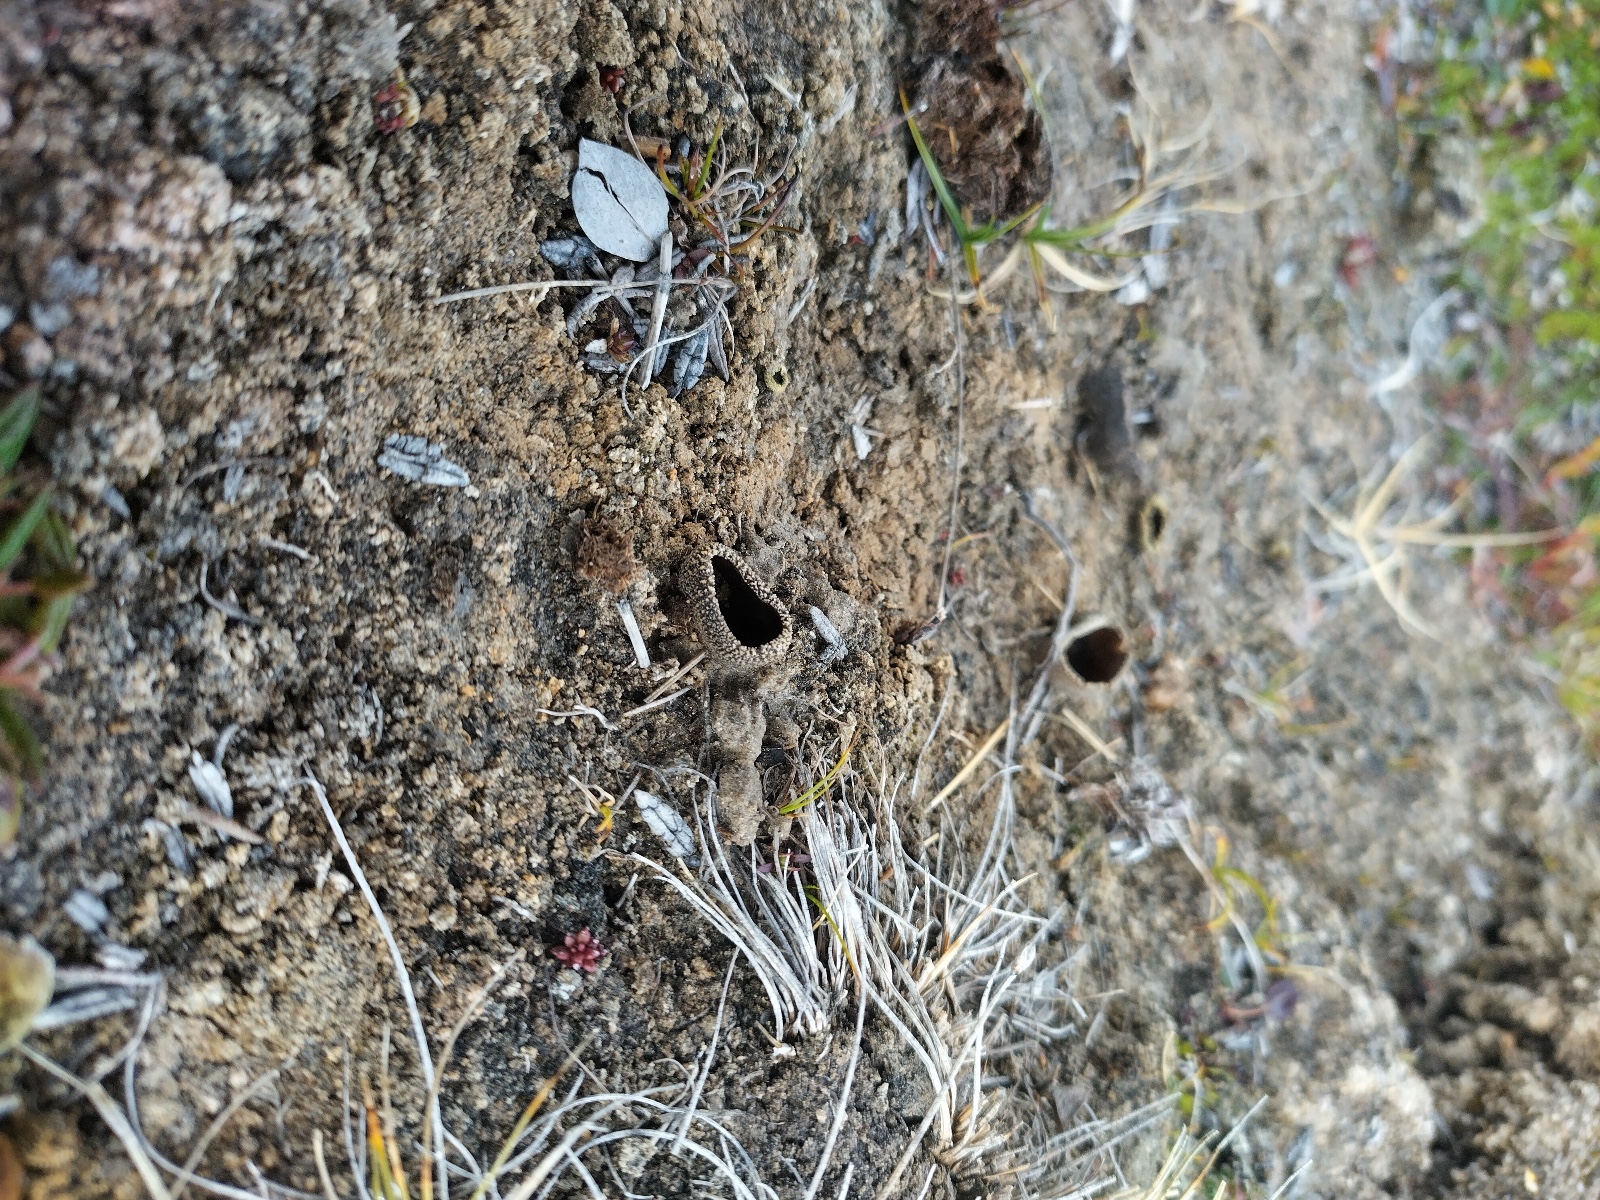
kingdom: Fungi
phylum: Ascomycota
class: Pezizomycetes
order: Pezizales
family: Helvellaceae
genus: Helvella
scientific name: Helvella
